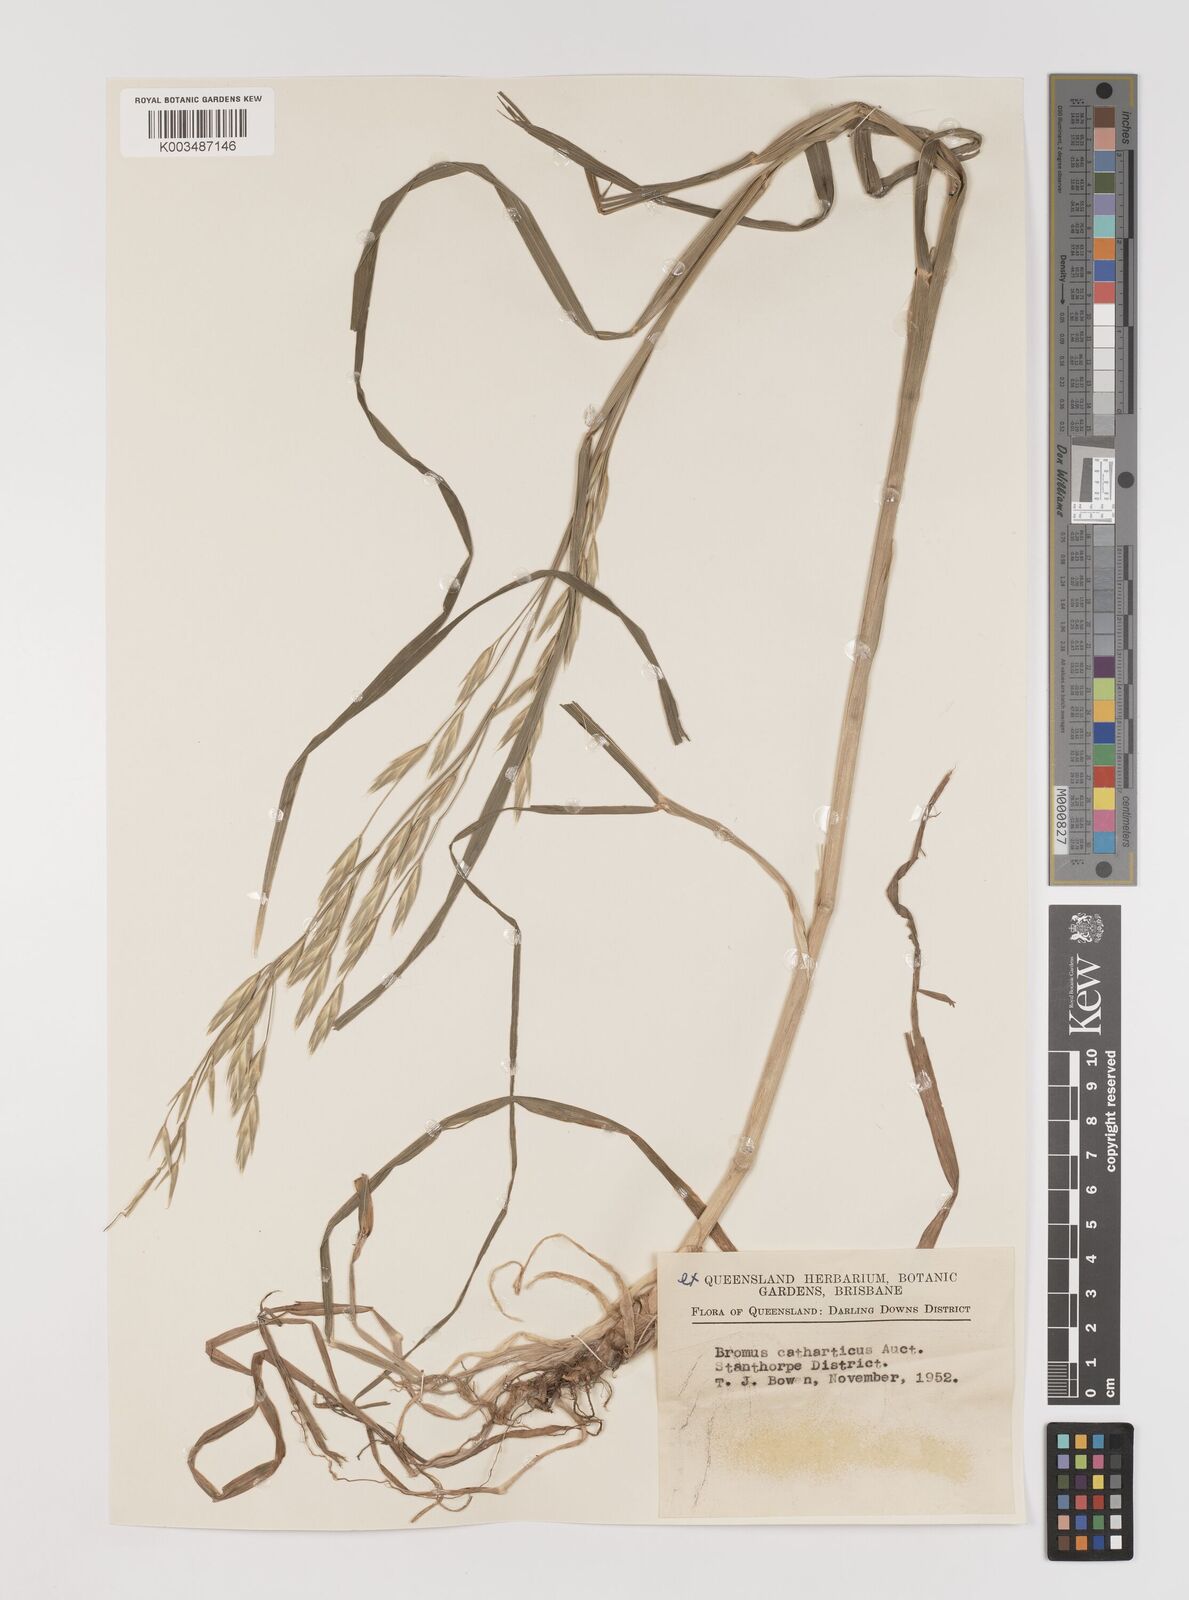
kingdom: Plantae
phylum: Tracheophyta
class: Liliopsida
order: Poales
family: Poaceae
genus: Bromus
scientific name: Bromus catharticus
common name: Rescuegrass
